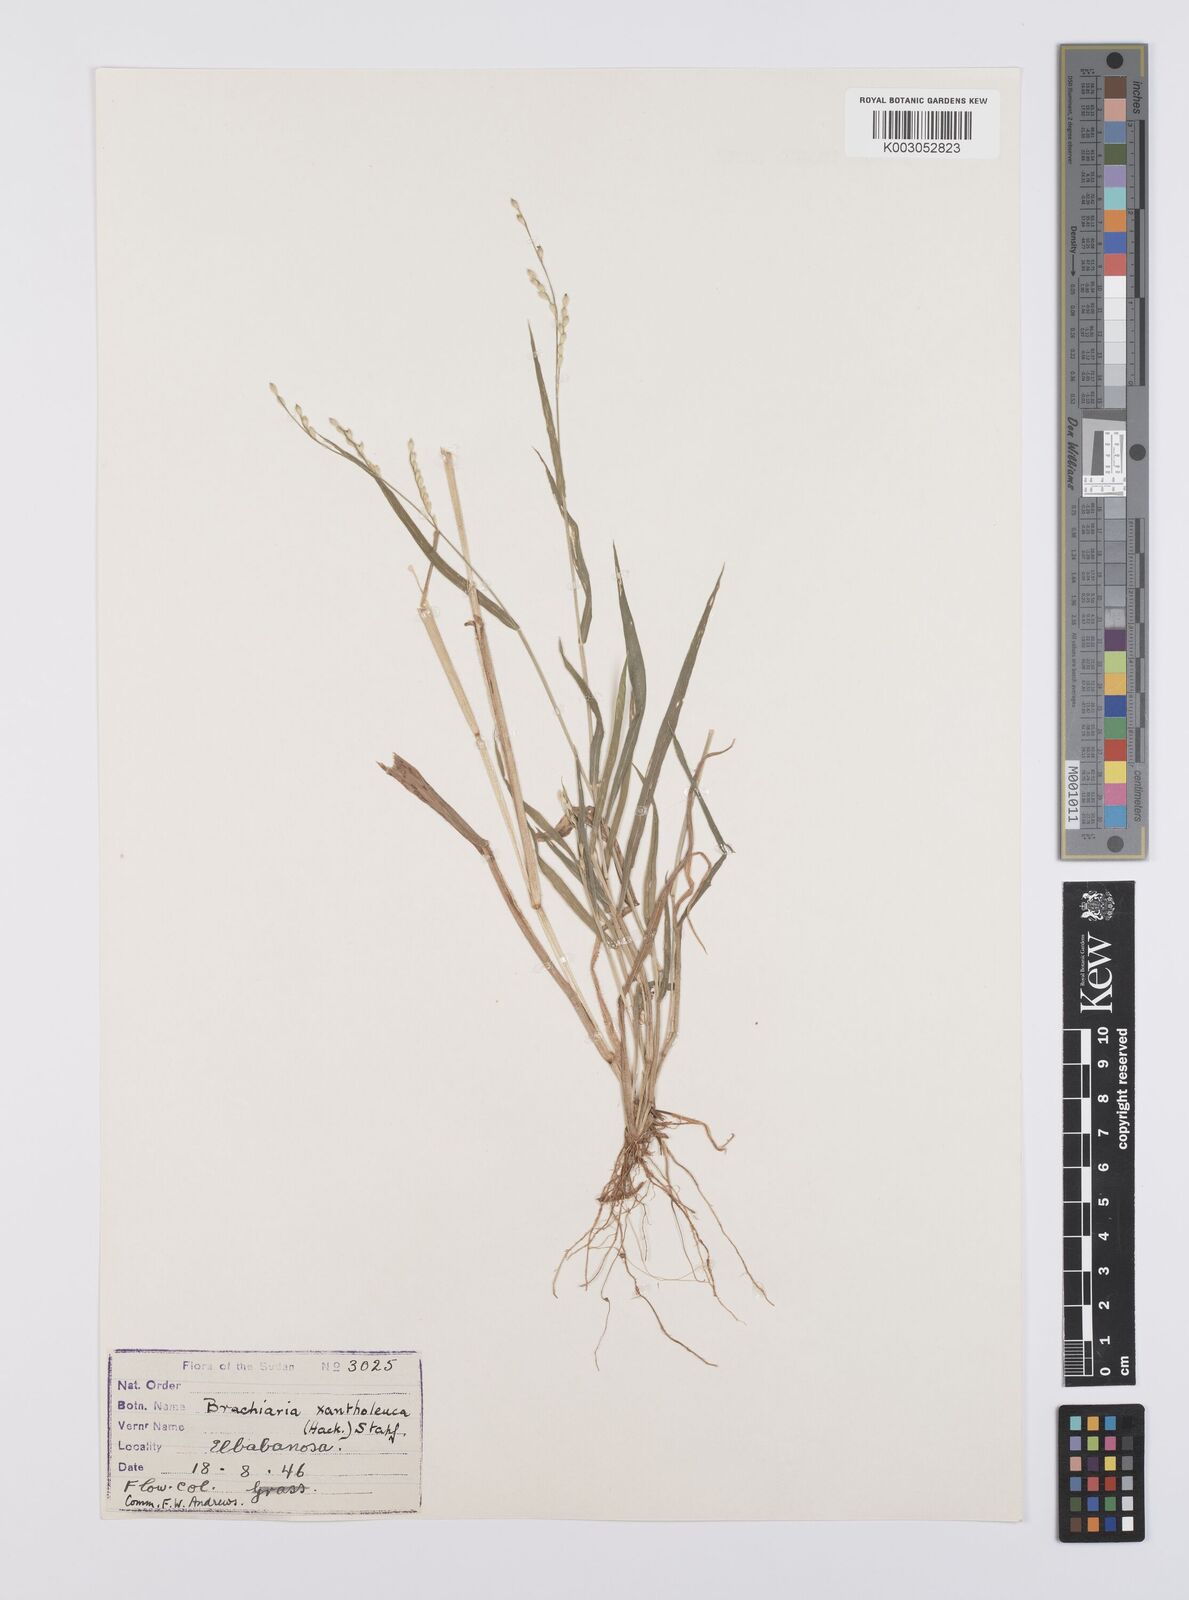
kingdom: Plantae
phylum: Tracheophyta
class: Liliopsida
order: Poales
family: Poaceae
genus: Urochloa
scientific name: Urochloa xantholeuca
